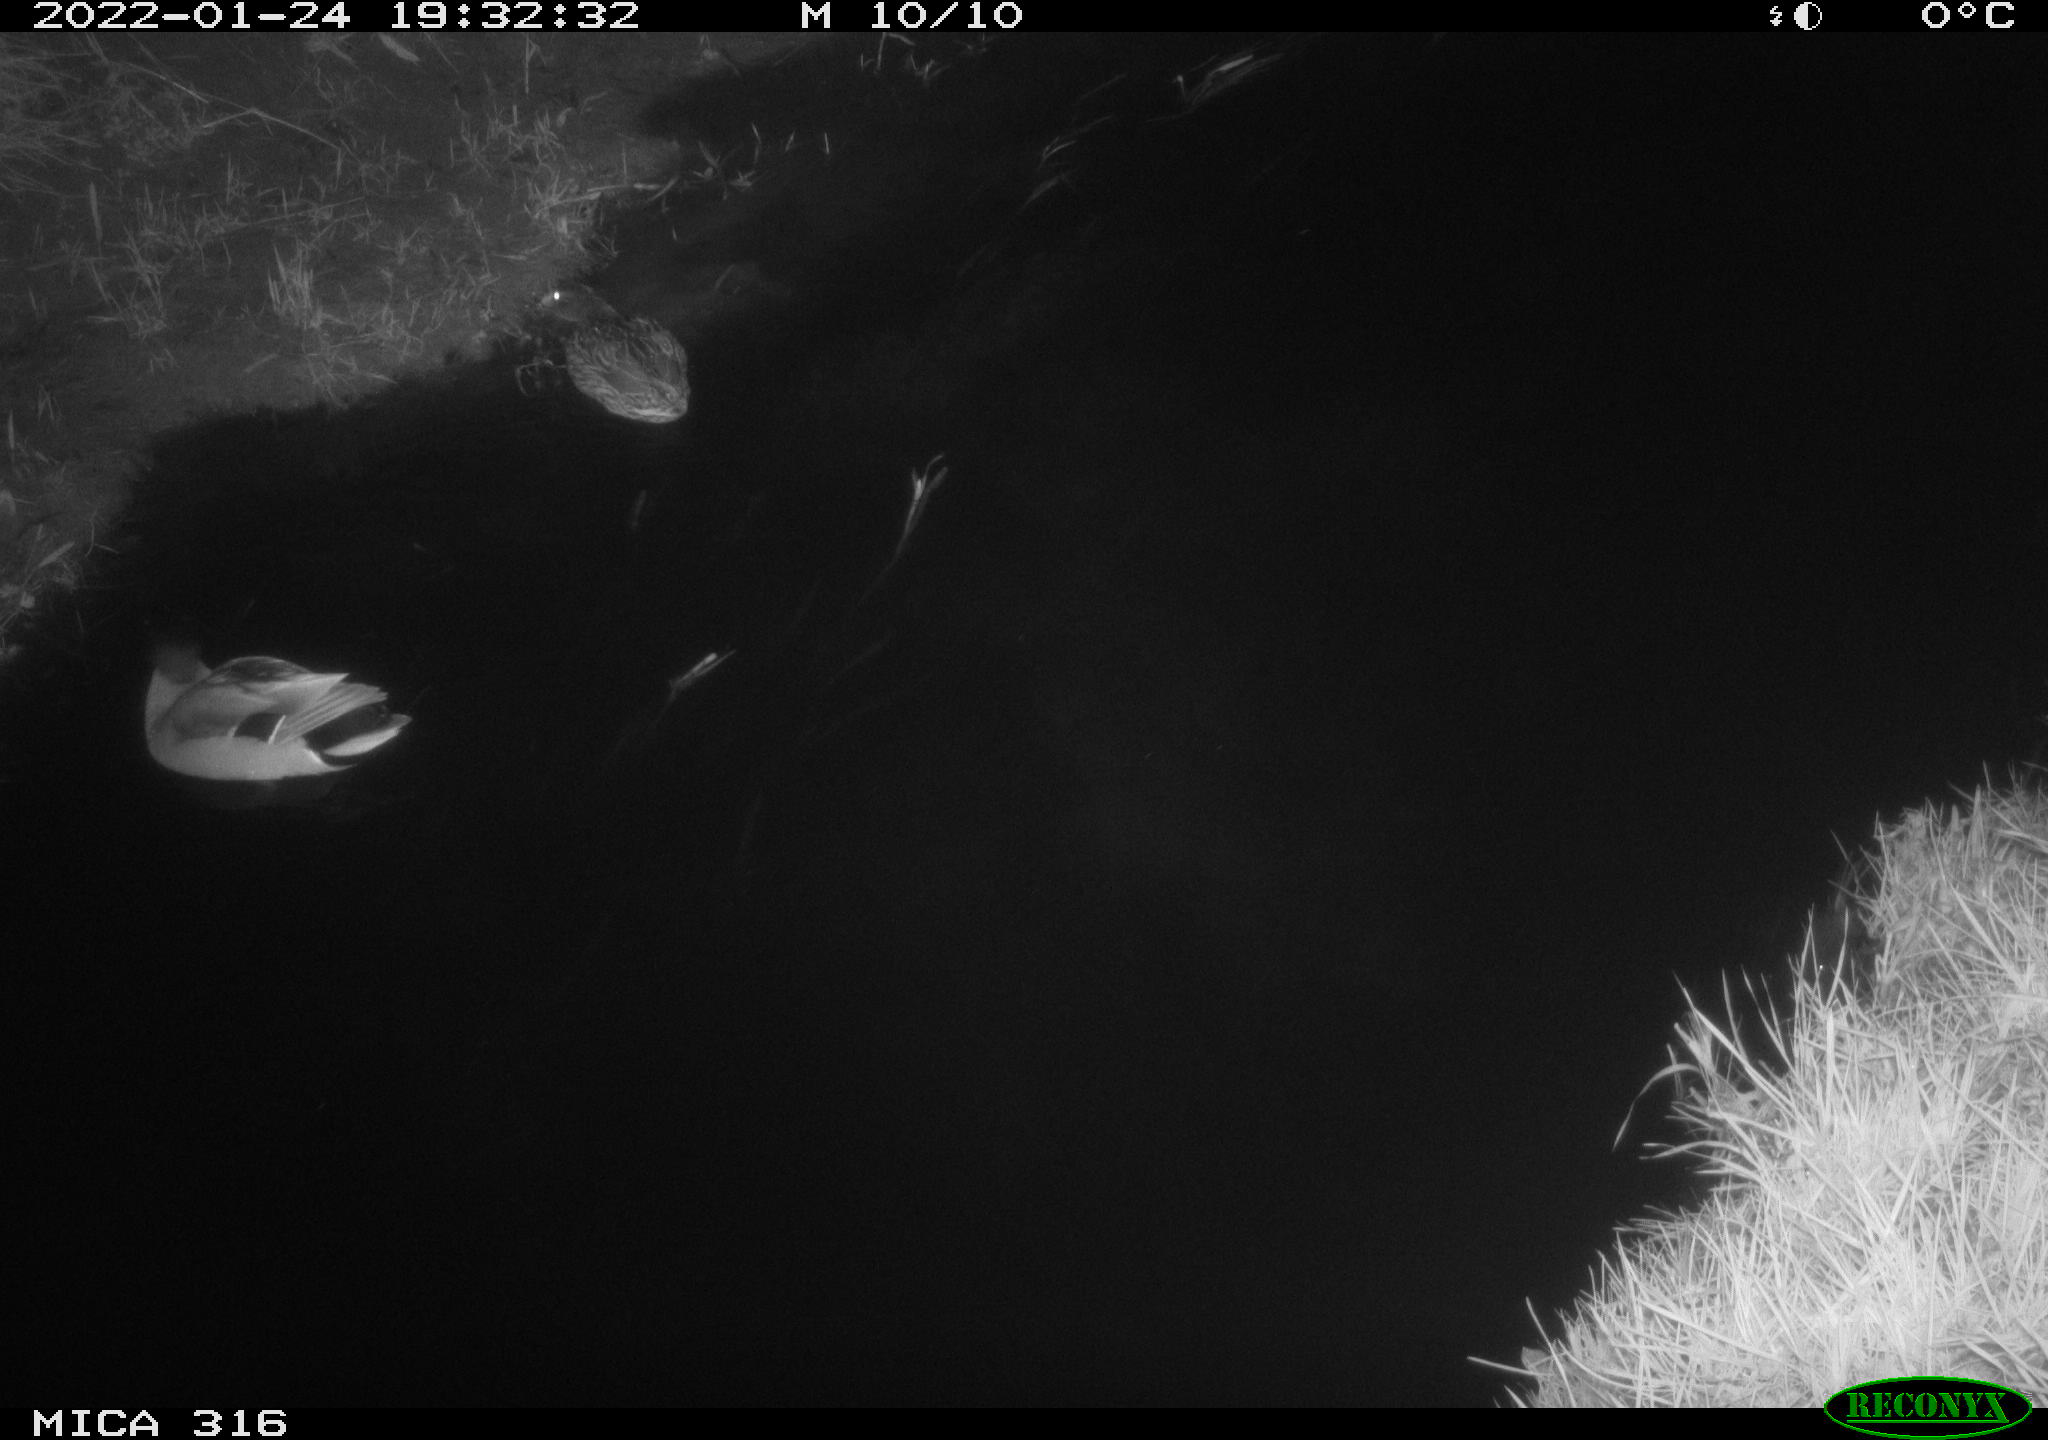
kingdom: Animalia
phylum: Chordata
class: Aves
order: Anseriformes
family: Anatidae
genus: Anas
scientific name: Anas platyrhynchos
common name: Mallard
